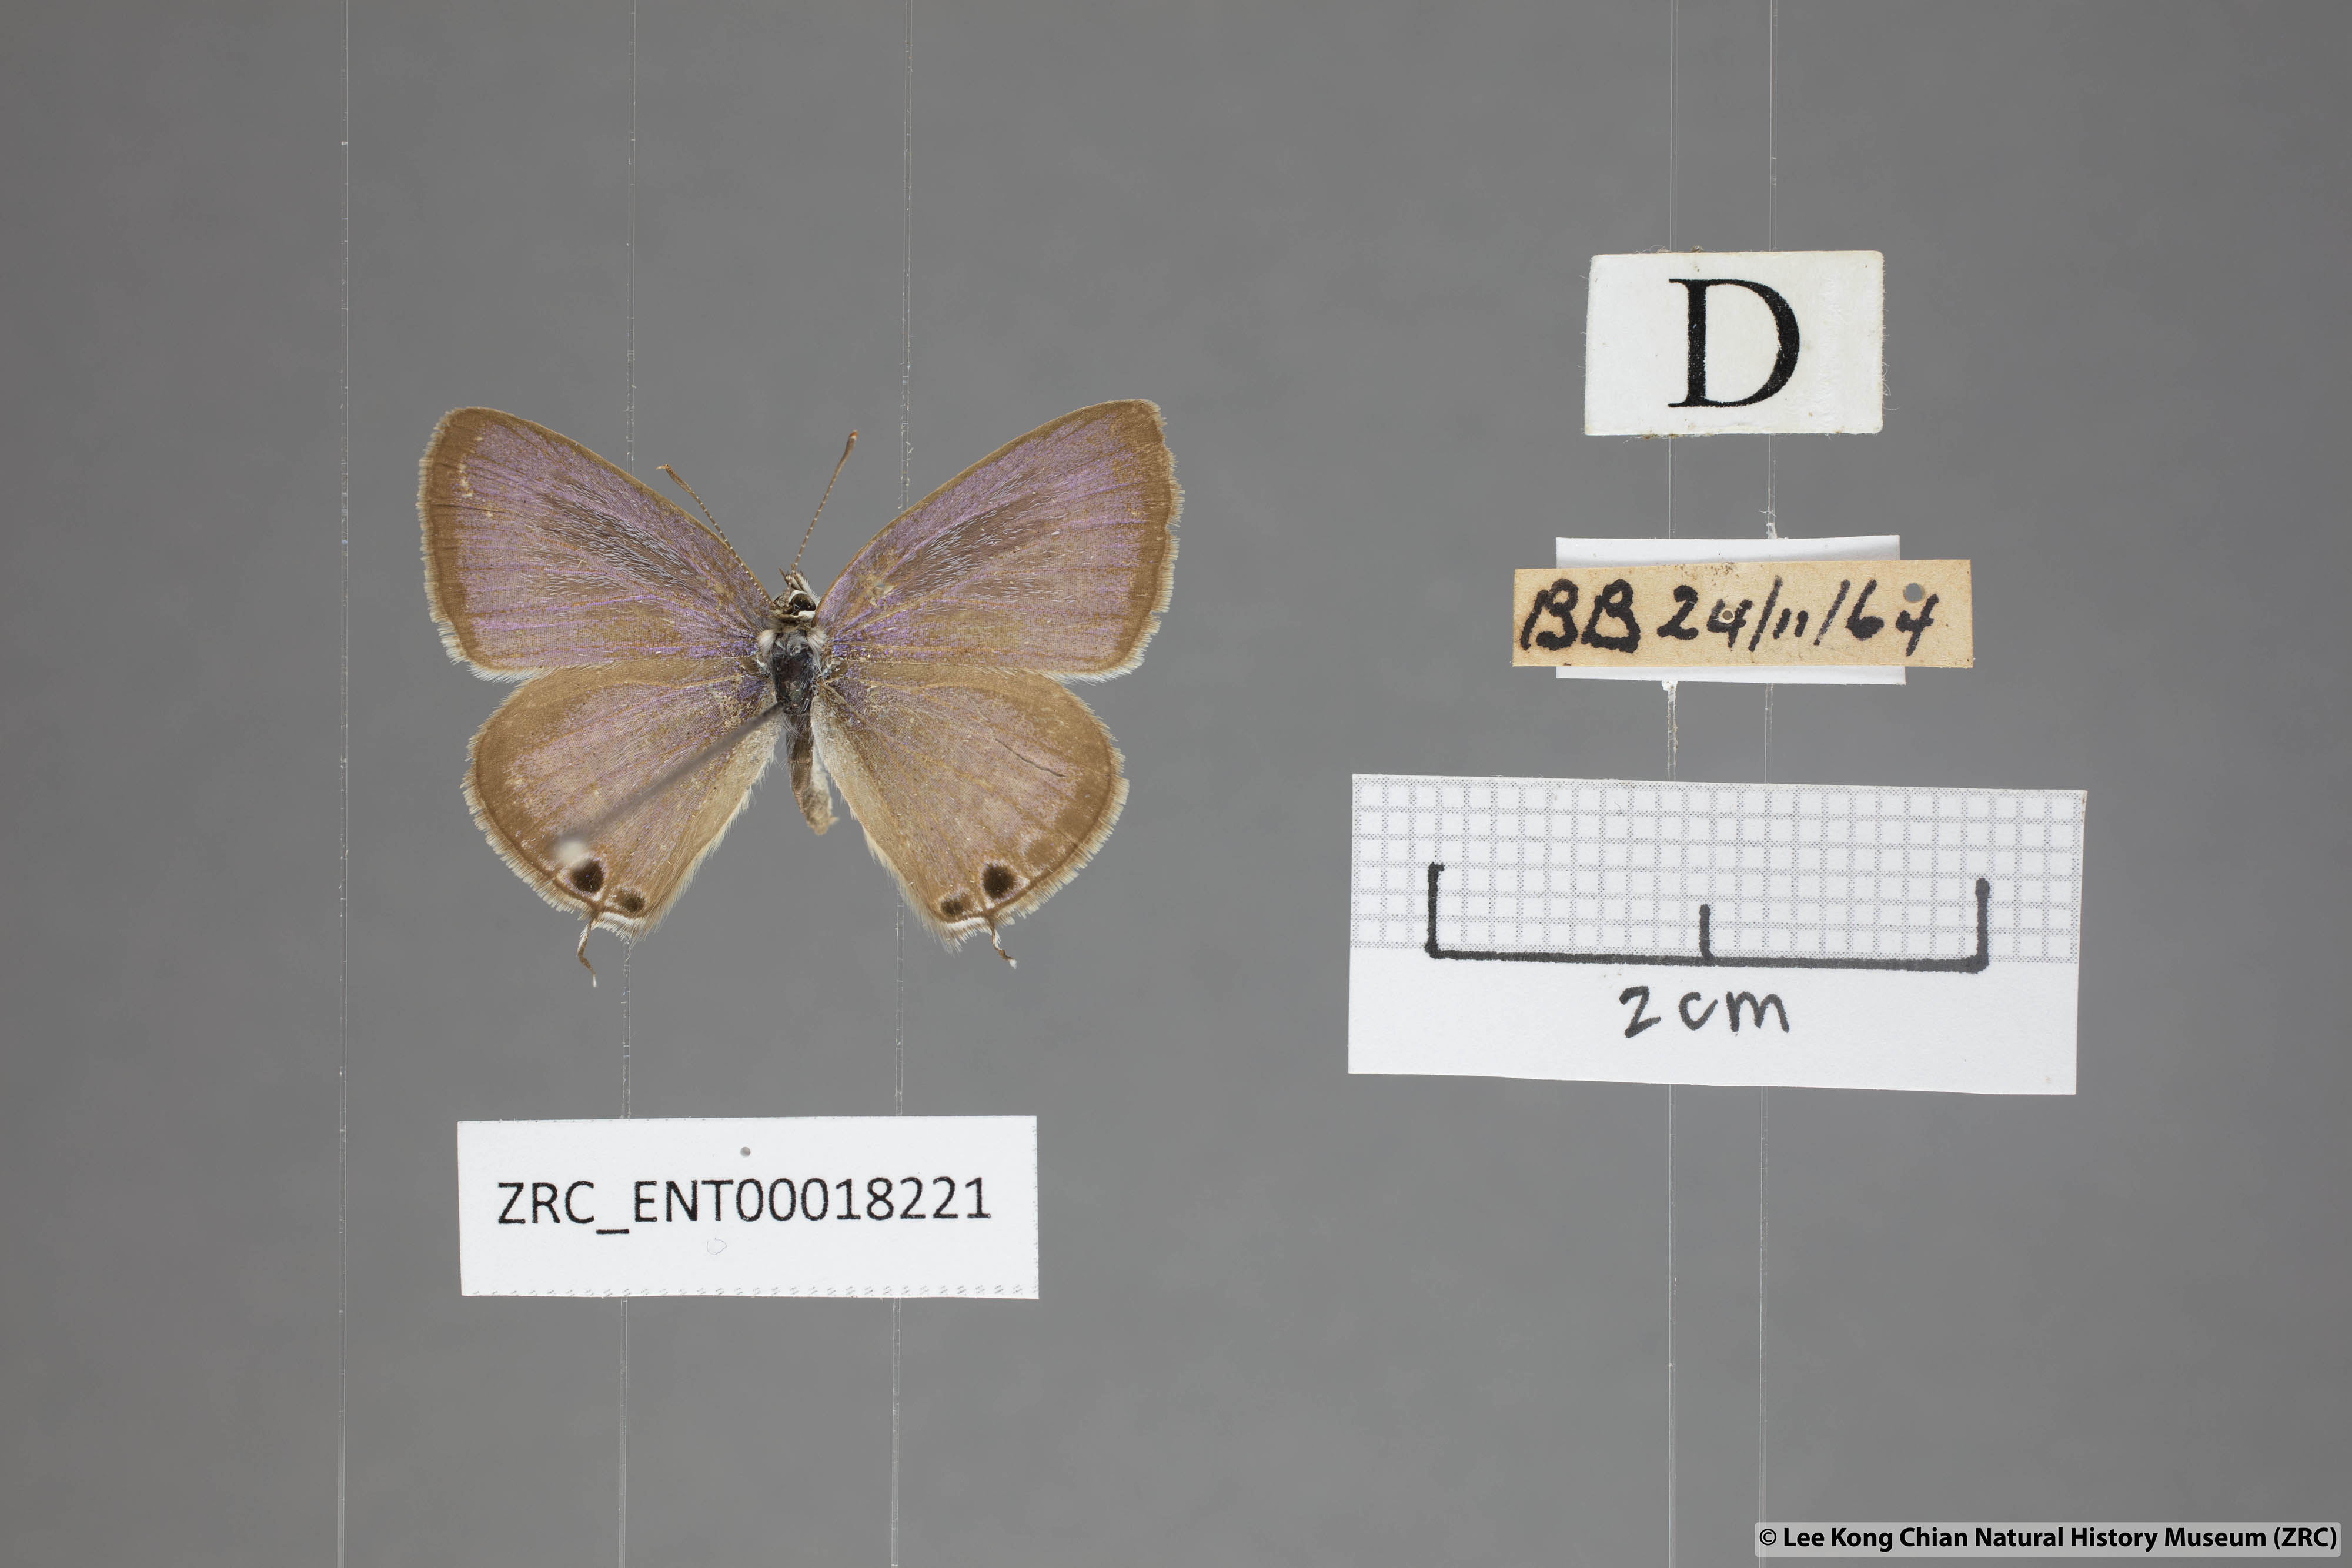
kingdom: Animalia
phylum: Arthropoda
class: Insecta
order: Lepidoptera
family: Lycaenidae
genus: Lampides
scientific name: Lampides boeticus
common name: Long-tailed blue
